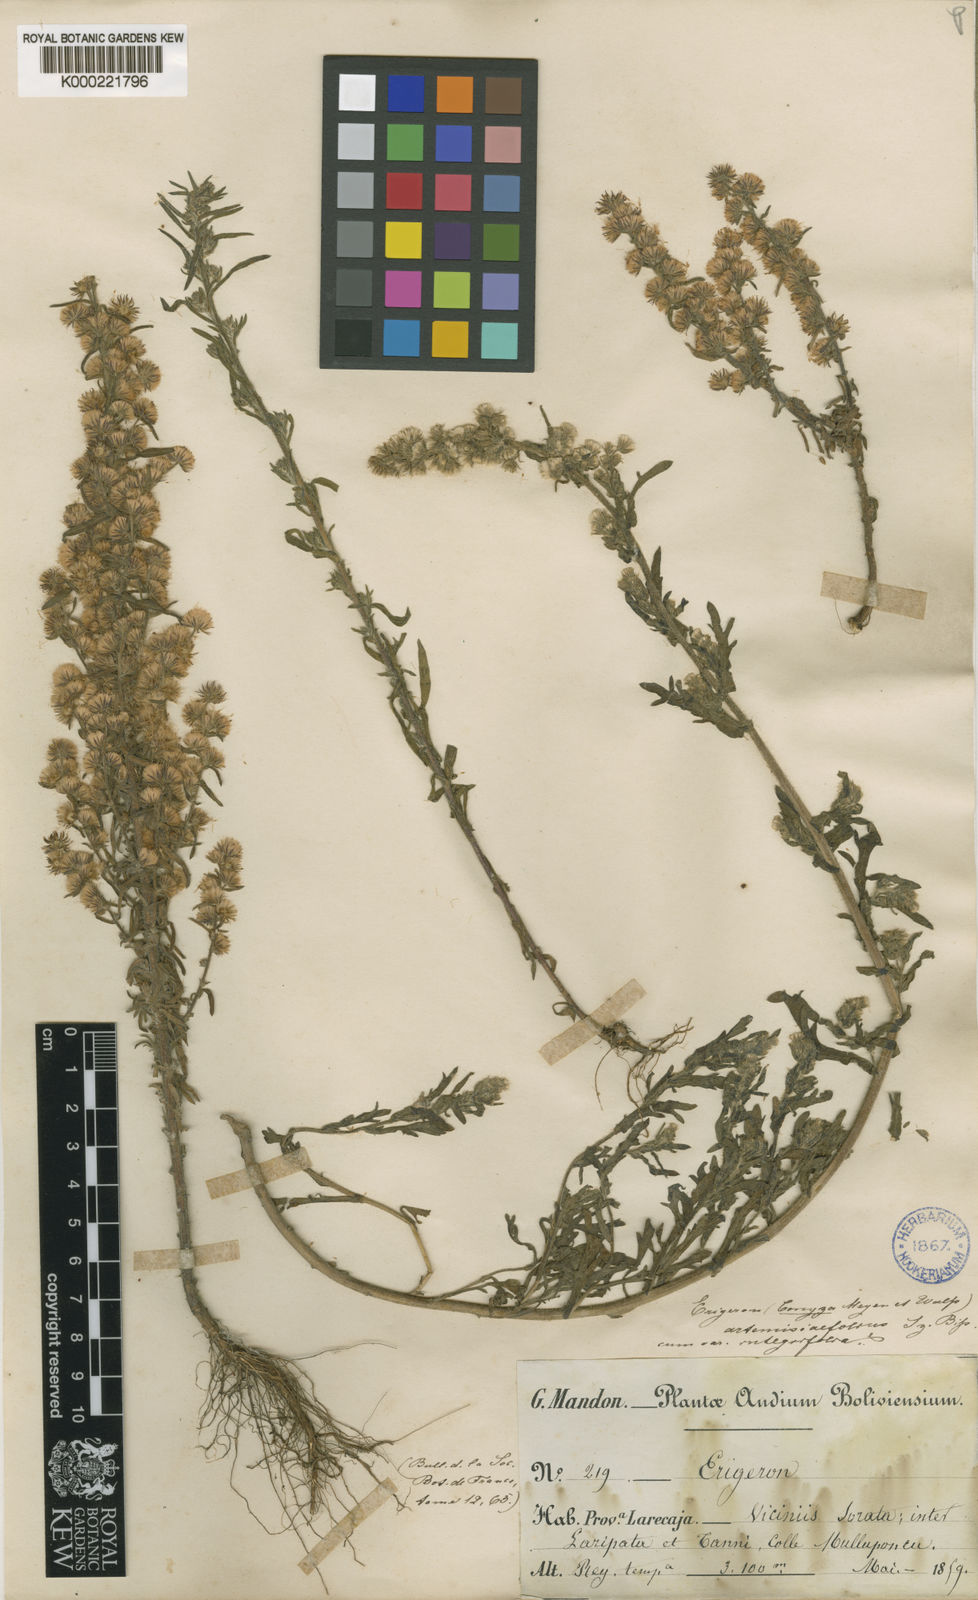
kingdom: Plantae
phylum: Tracheophyta
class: Magnoliopsida
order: Asterales
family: Asteraceae
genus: Laennecia
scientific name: Laennecia artemisiifolia
